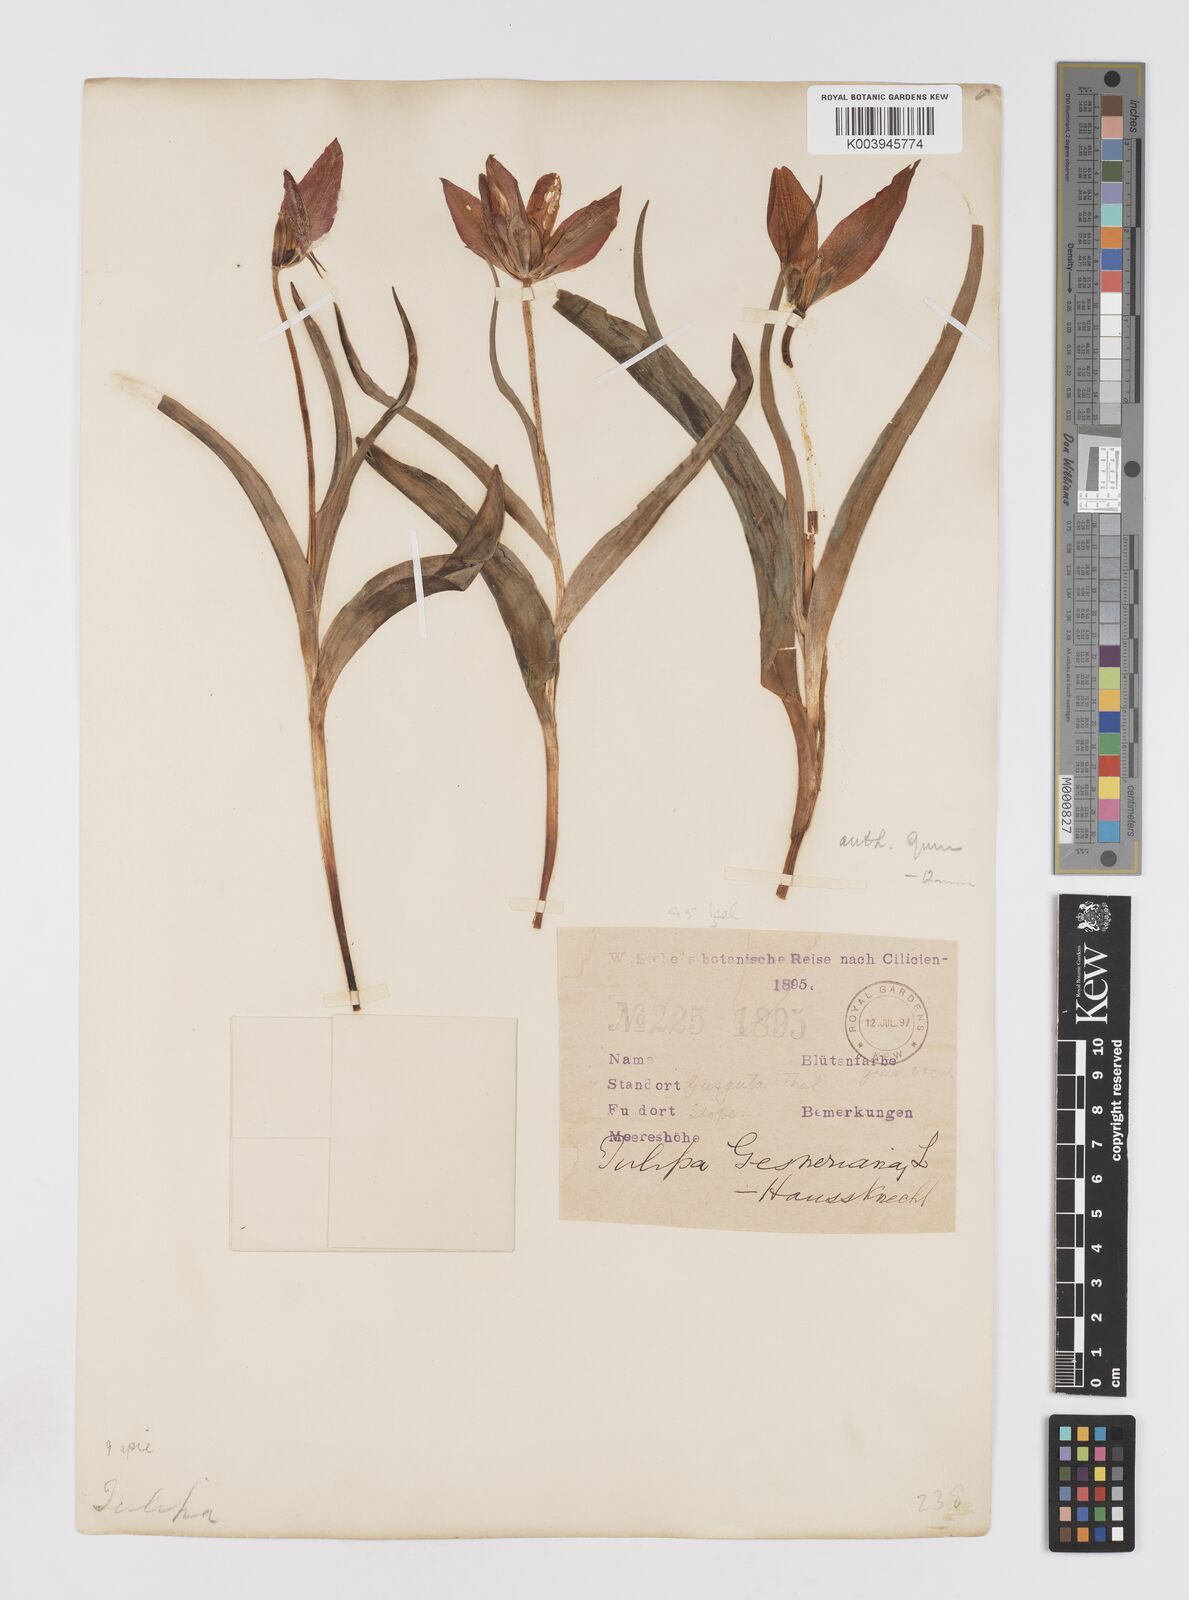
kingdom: Plantae
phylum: Tracheophyta
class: Liliopsida
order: Liliales
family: Liliaceae
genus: Tulipa
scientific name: Tulipa foliosa
